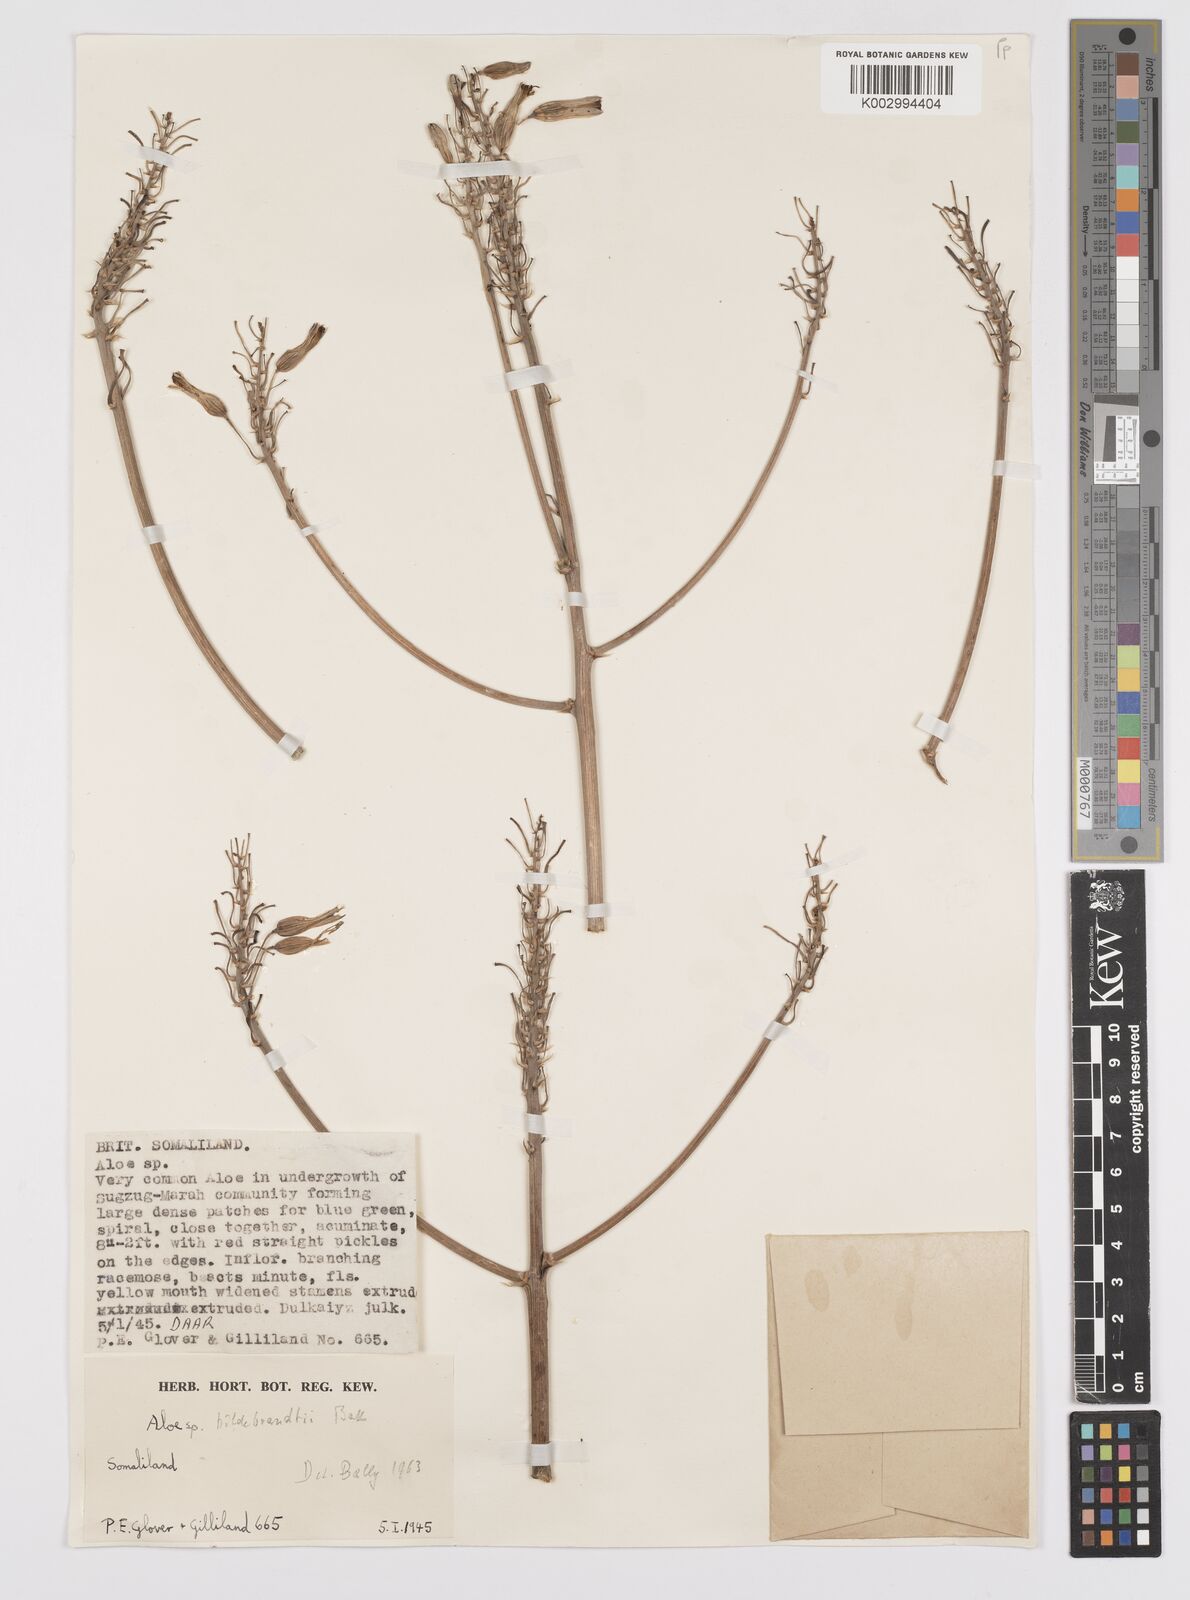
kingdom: Plantae
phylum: Tracheophyta
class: Liliopsida
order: Asparagales
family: Asphodelaceae
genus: Aloe
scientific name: Aloe
